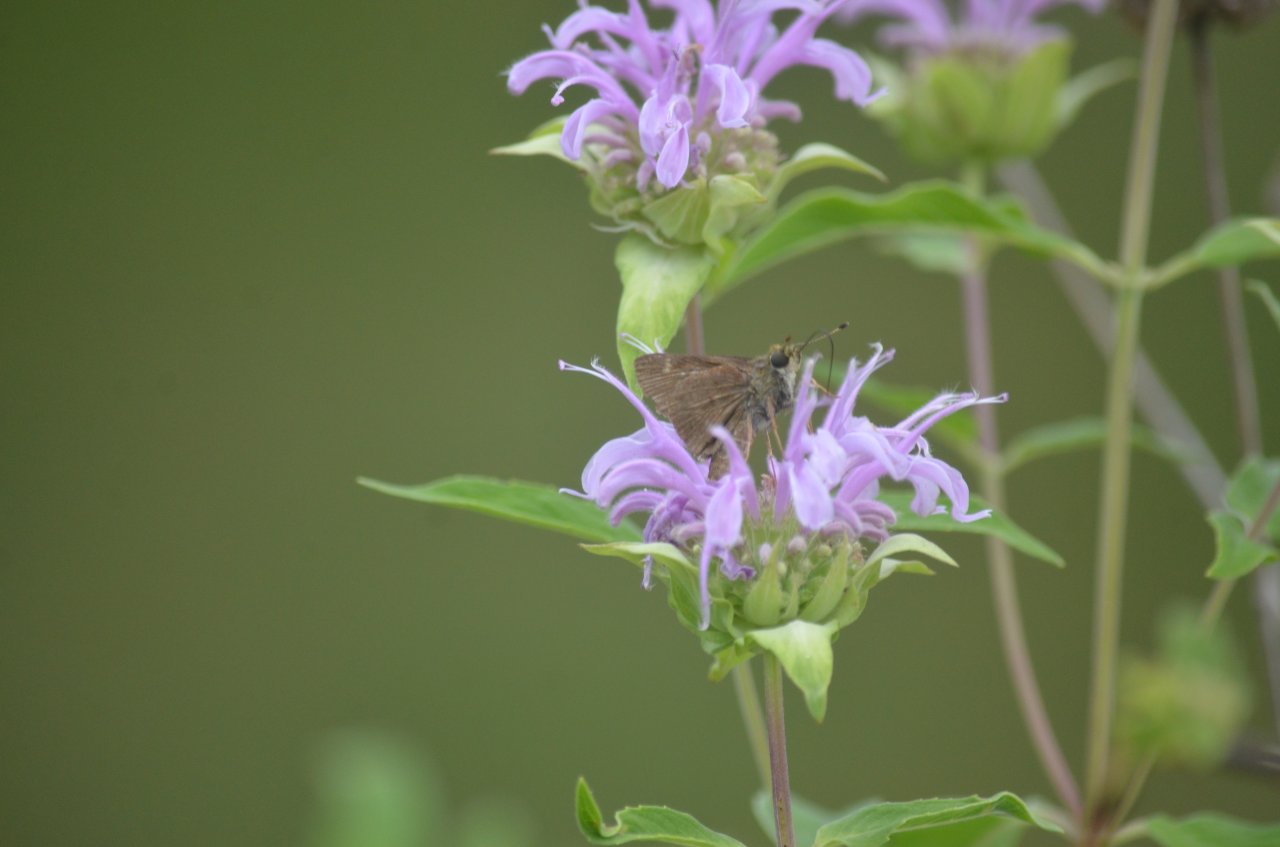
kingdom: Animalia
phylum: Arthropoda
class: Insecta
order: Lepidoptera
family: Hesperiidae
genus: Euphyes
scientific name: Euphyes vestris
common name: Dun Skipper
